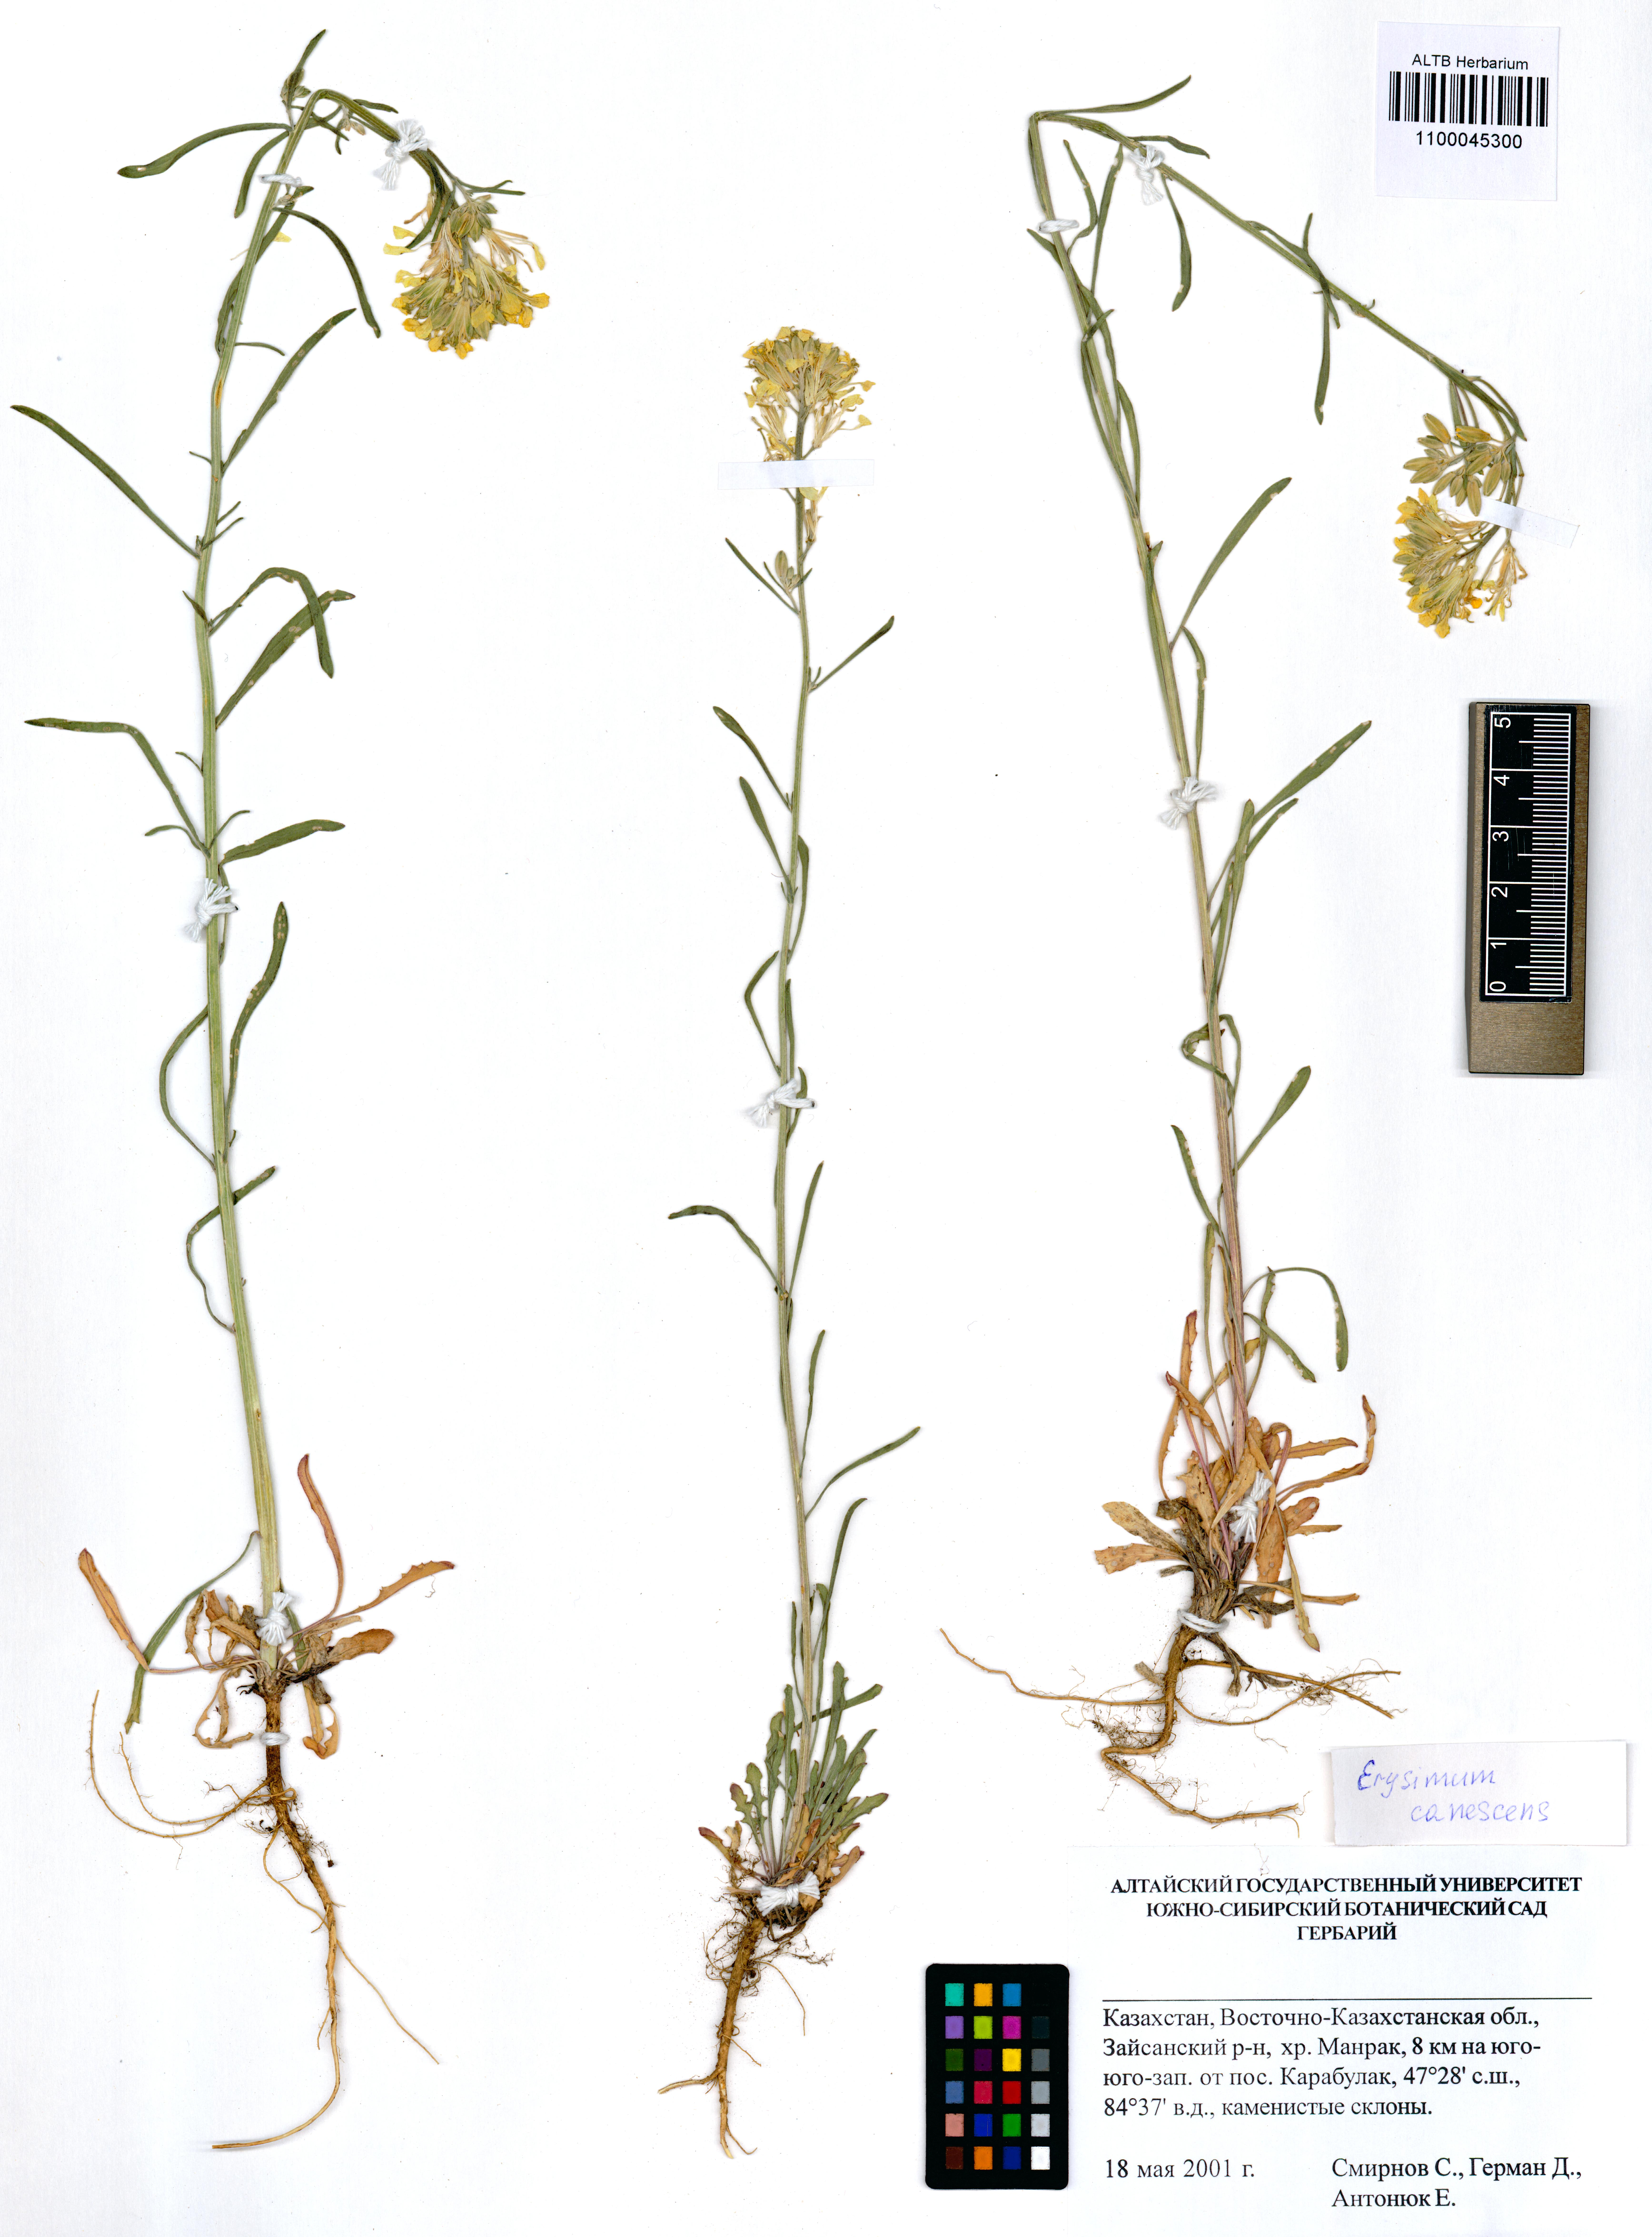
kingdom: Plantae
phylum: Tracheophyta
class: Magnoliopsida
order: Brassicales
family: Brassicaceae
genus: Erysimum
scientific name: Erysimum canescens
